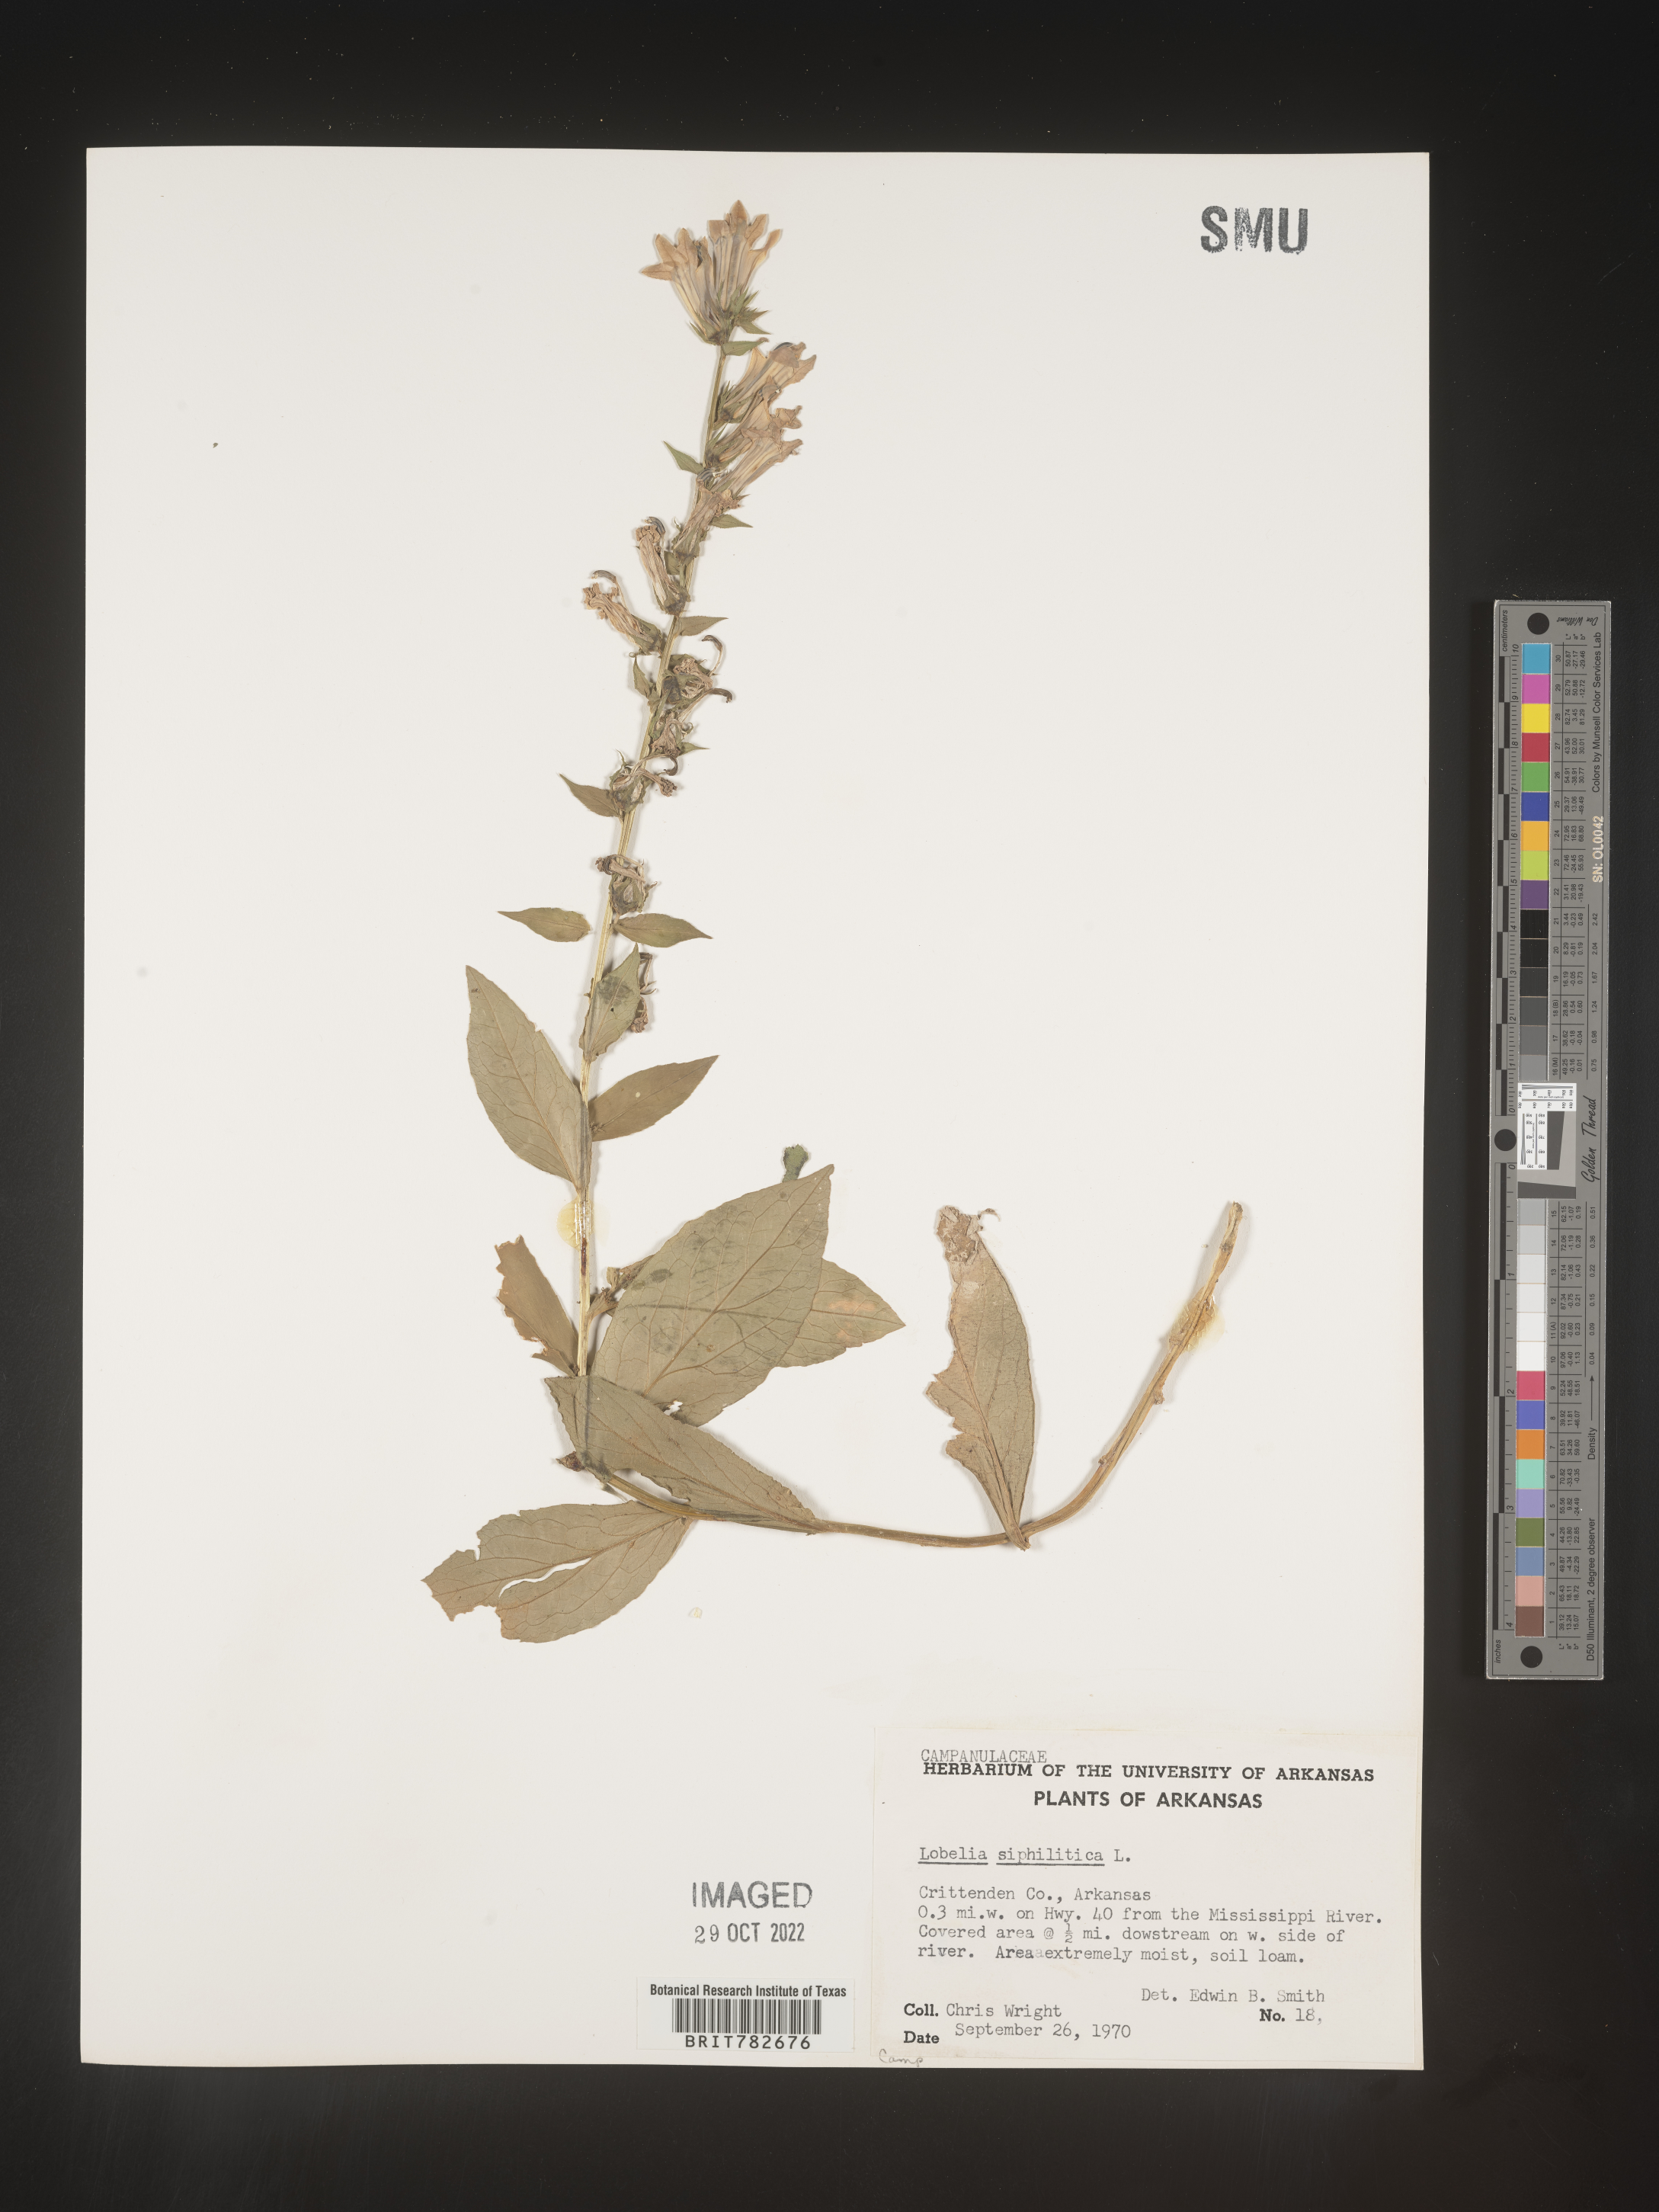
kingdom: Plantae
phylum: Tracheophyta
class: Magnoliopsida
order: Asterales
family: Campanulaceae
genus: Lobelia
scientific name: Lobelia siphilitica
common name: Great lobelia
